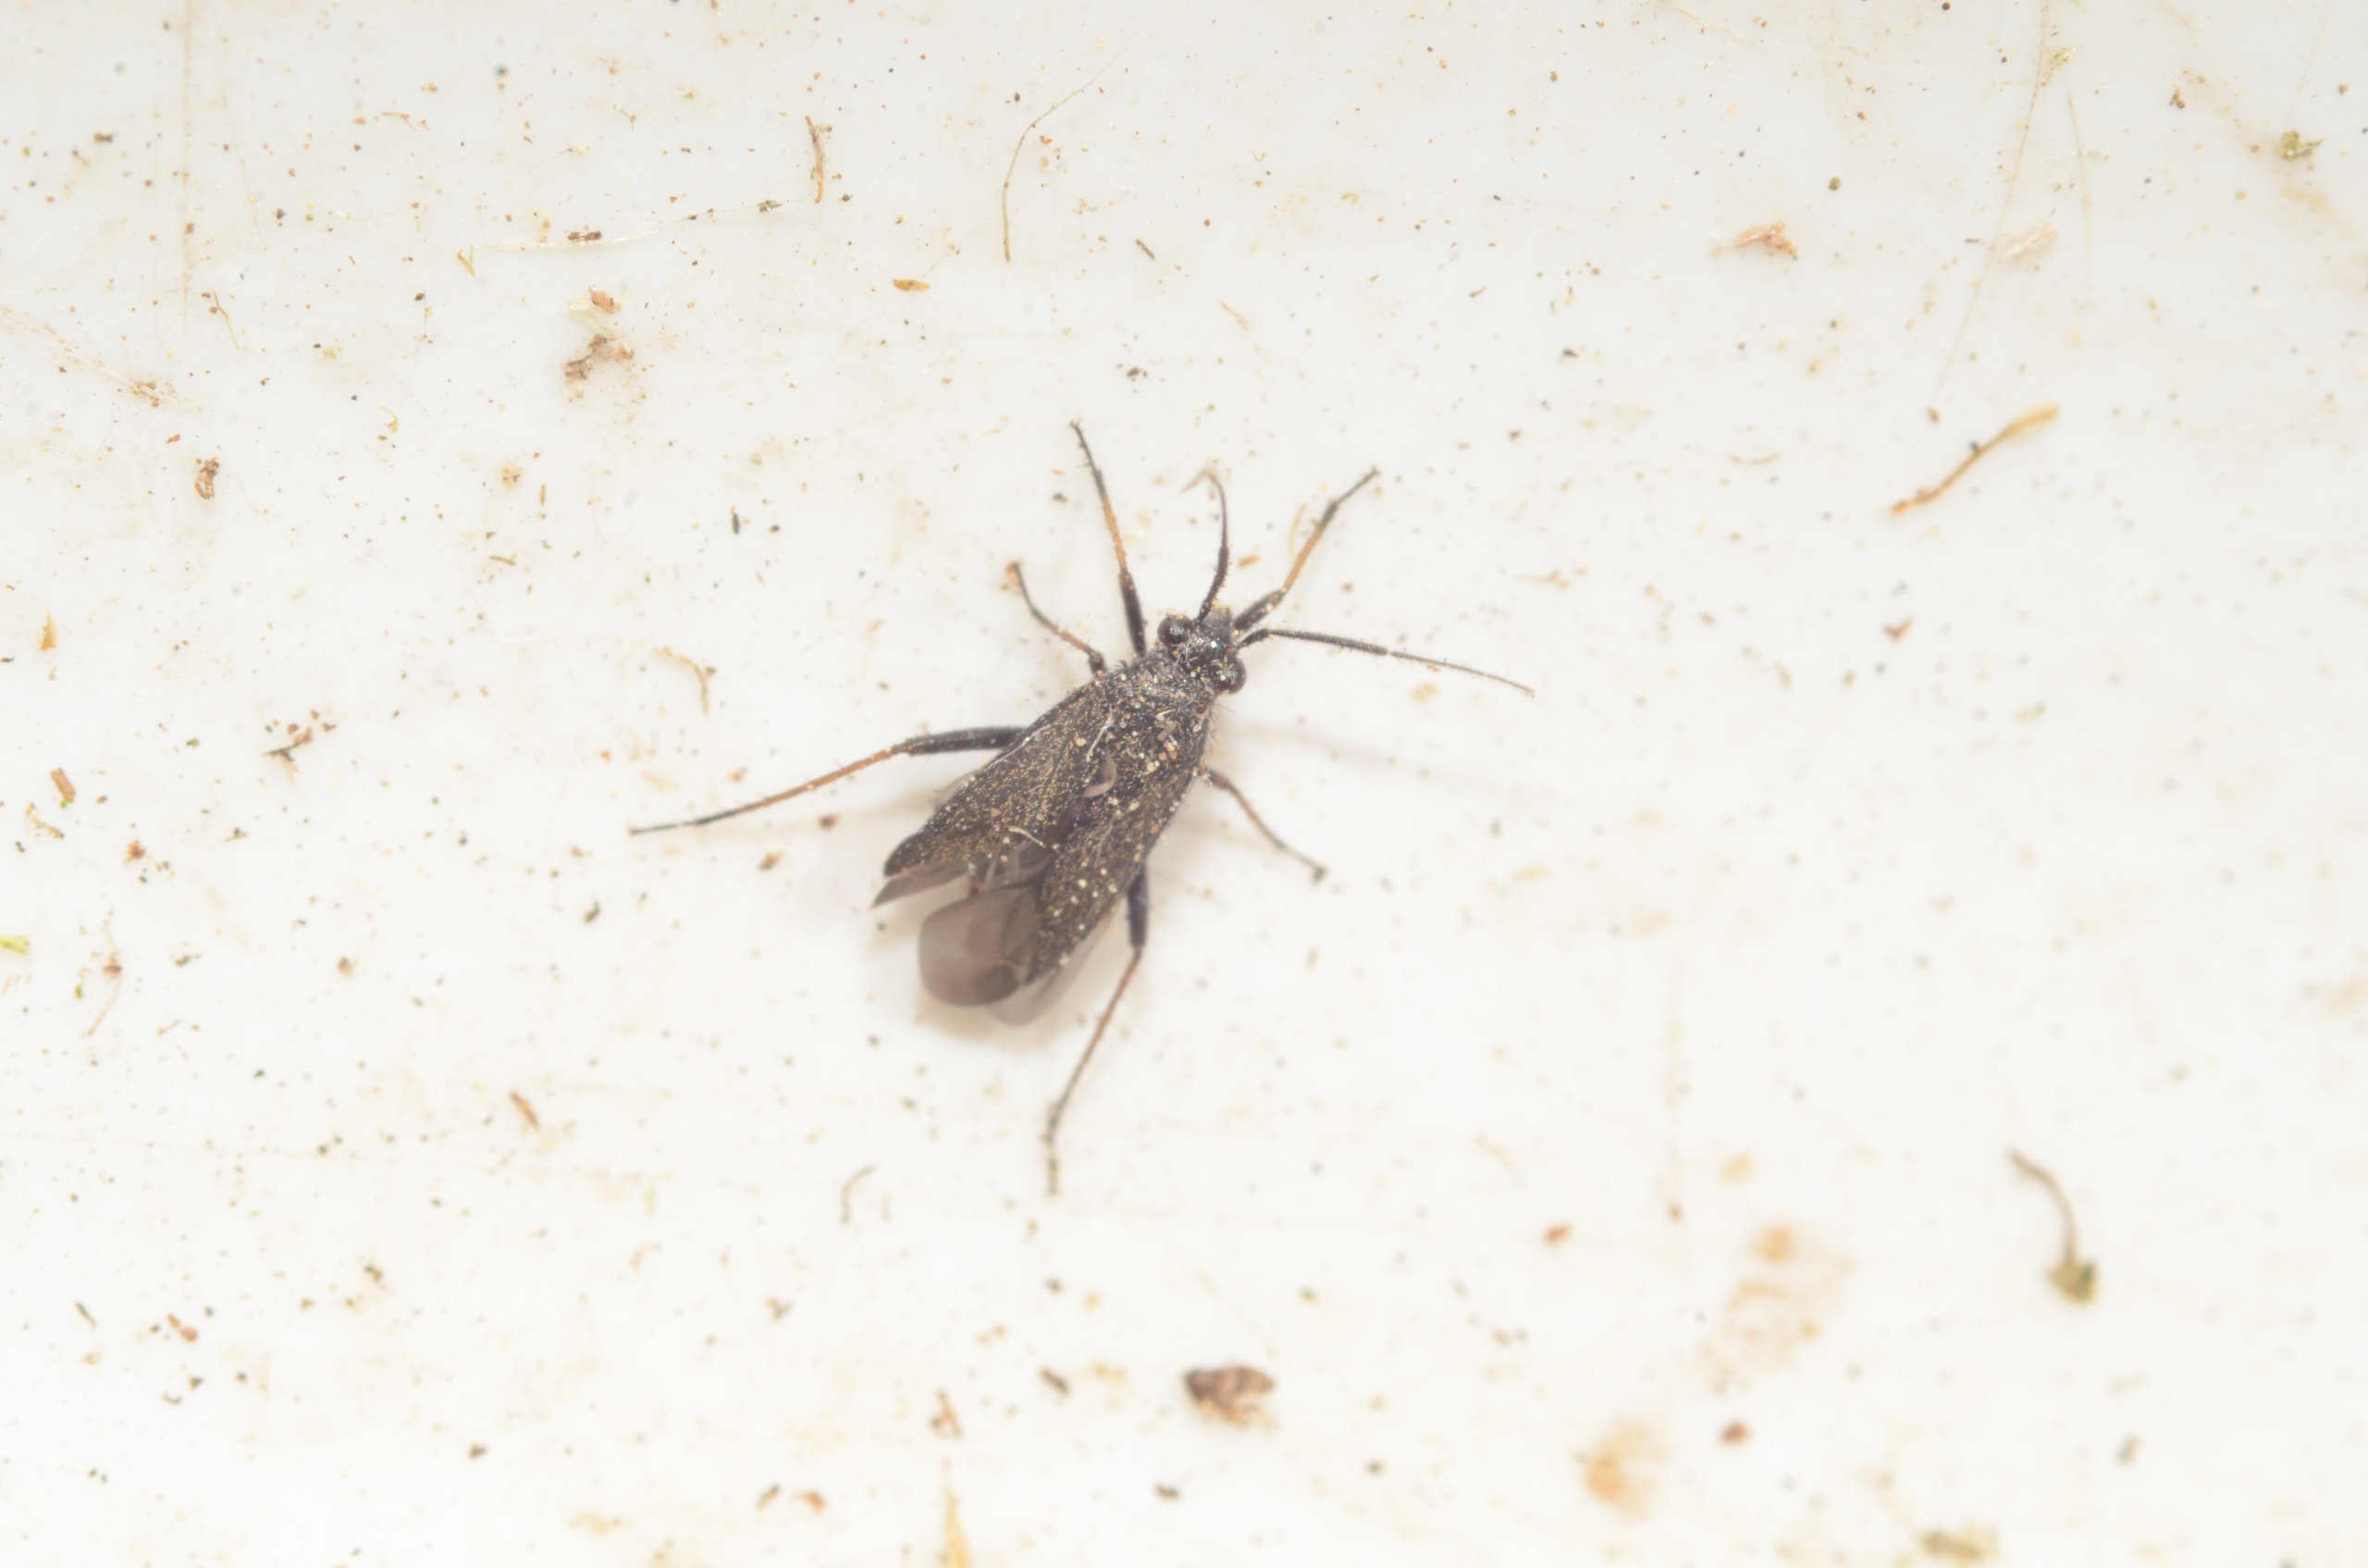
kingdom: Animalia
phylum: Arthropoda
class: Insecta
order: Hemiptera
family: Miridae
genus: Orthocephalus
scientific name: Orthocephalus saltator
